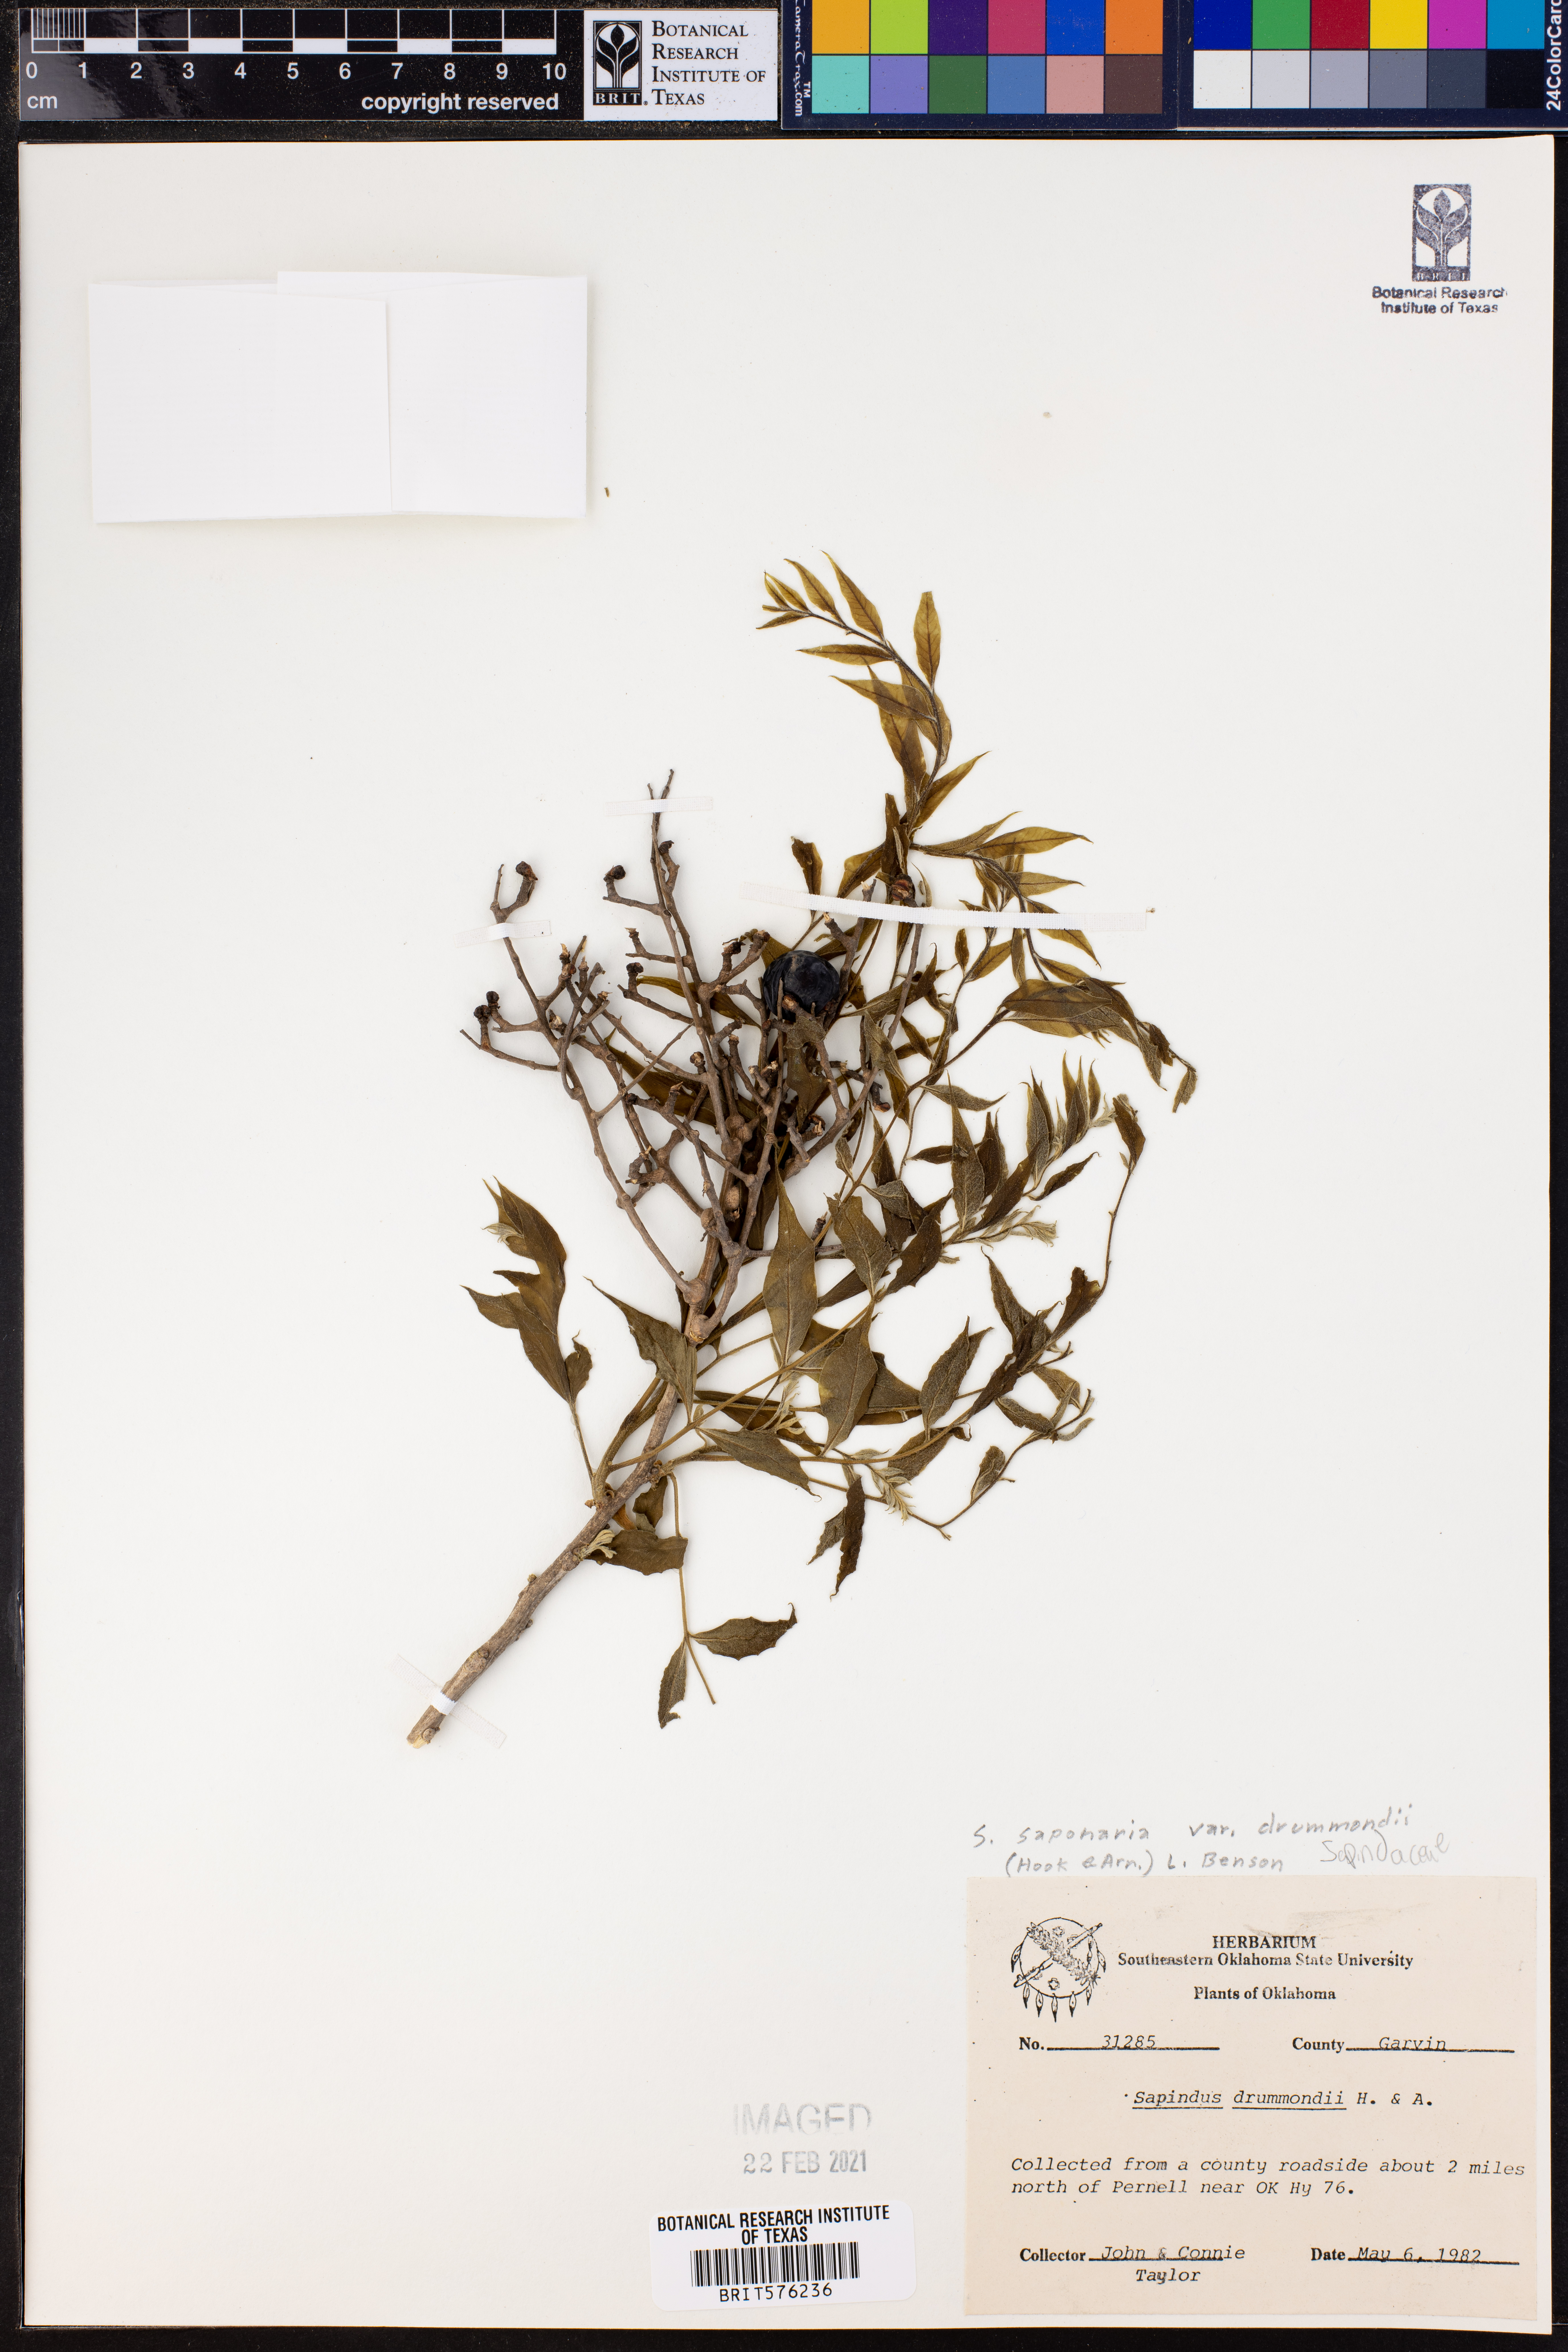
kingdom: Plantae
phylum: Tracheophyta
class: Magnoliopsida
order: Sapindales
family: Sapindaceae
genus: Sapindus
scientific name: Sapindus drummondii
